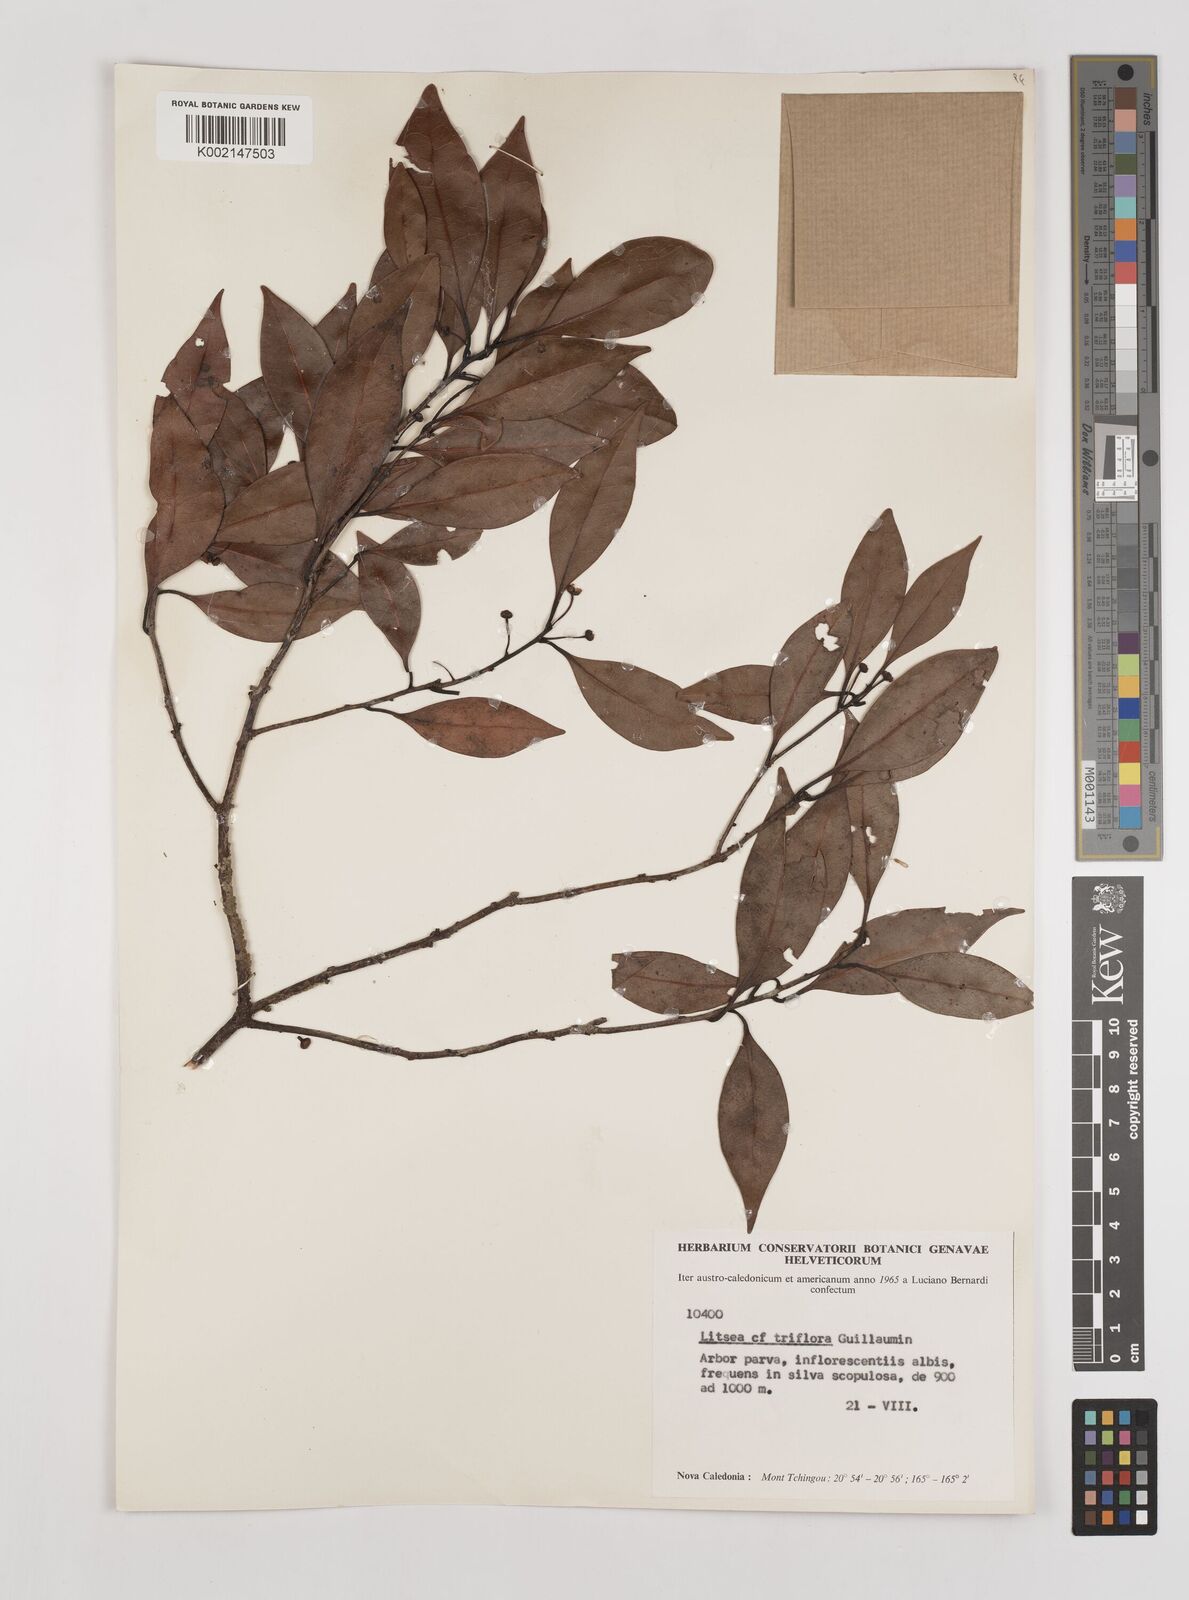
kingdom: Plantae
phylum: Tracheophyta
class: Magnoliopsida
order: Laurales
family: Lauraceae
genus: Litsea
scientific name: Litsea triflora
